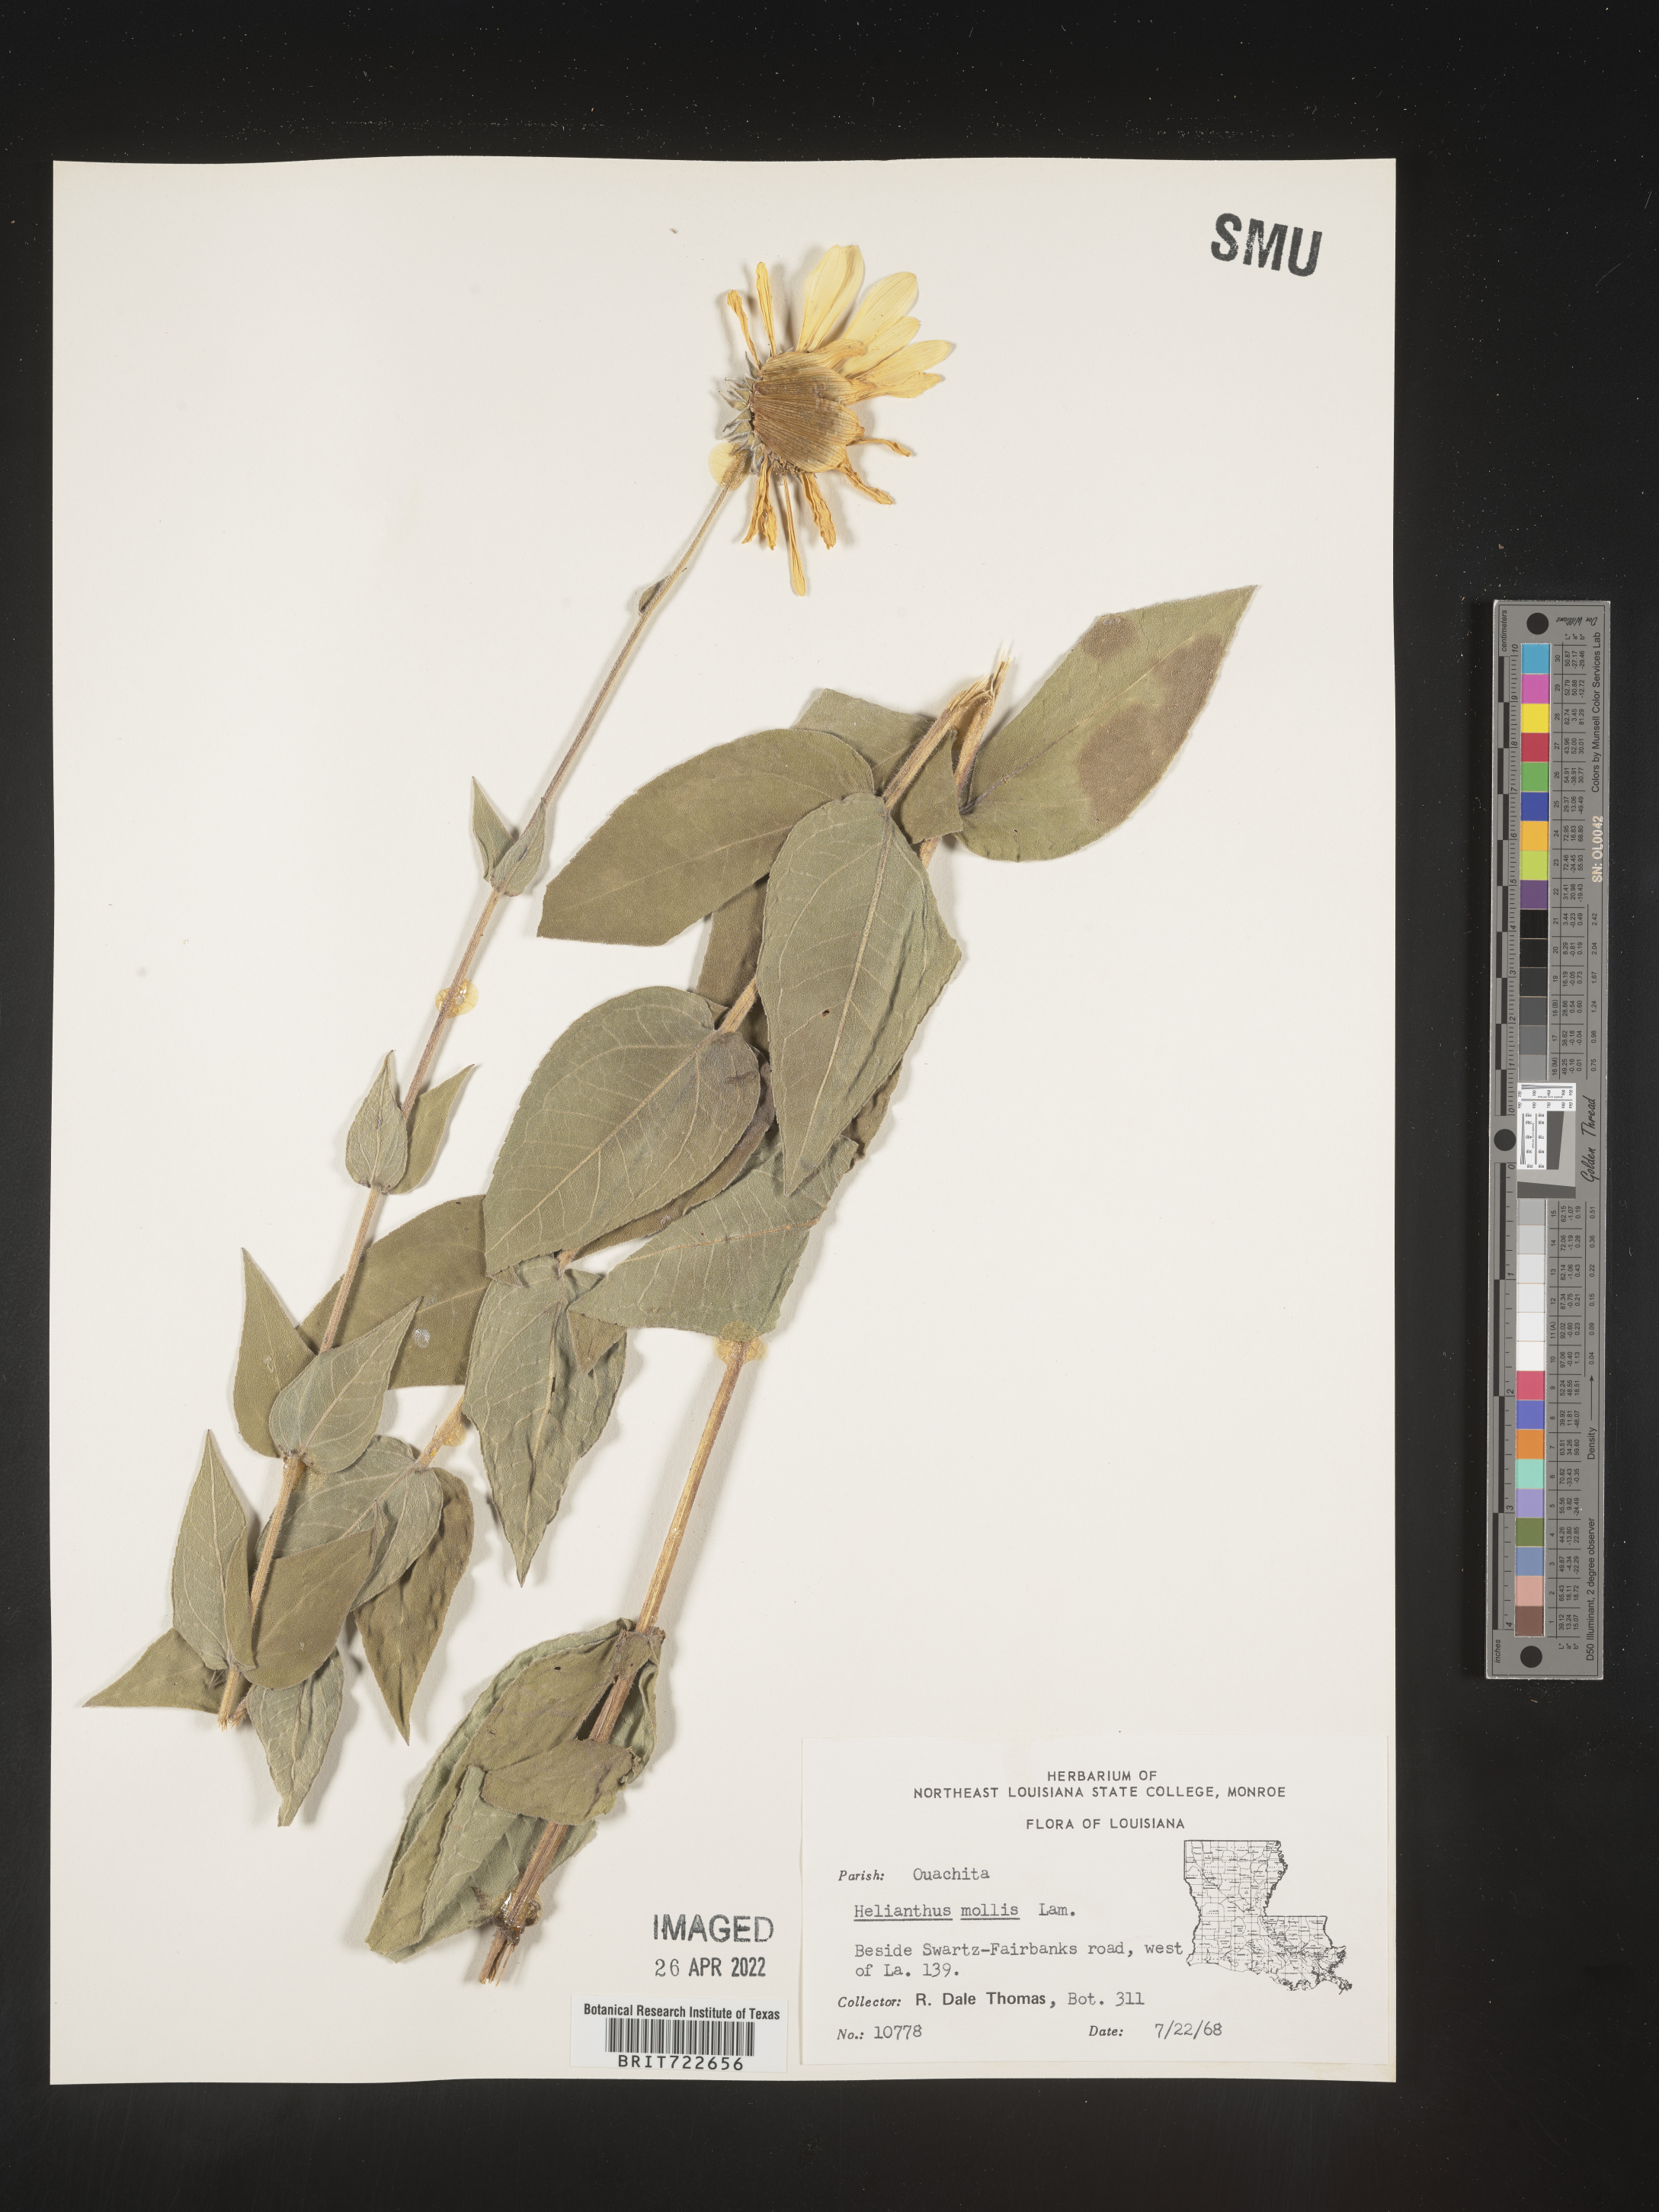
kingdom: Plantae
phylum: Tracheophyta
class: Magnoliopsida
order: Asterales
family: Asteraceae
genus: Helianthus
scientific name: Helianthus mollis
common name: Ashy sunflower
